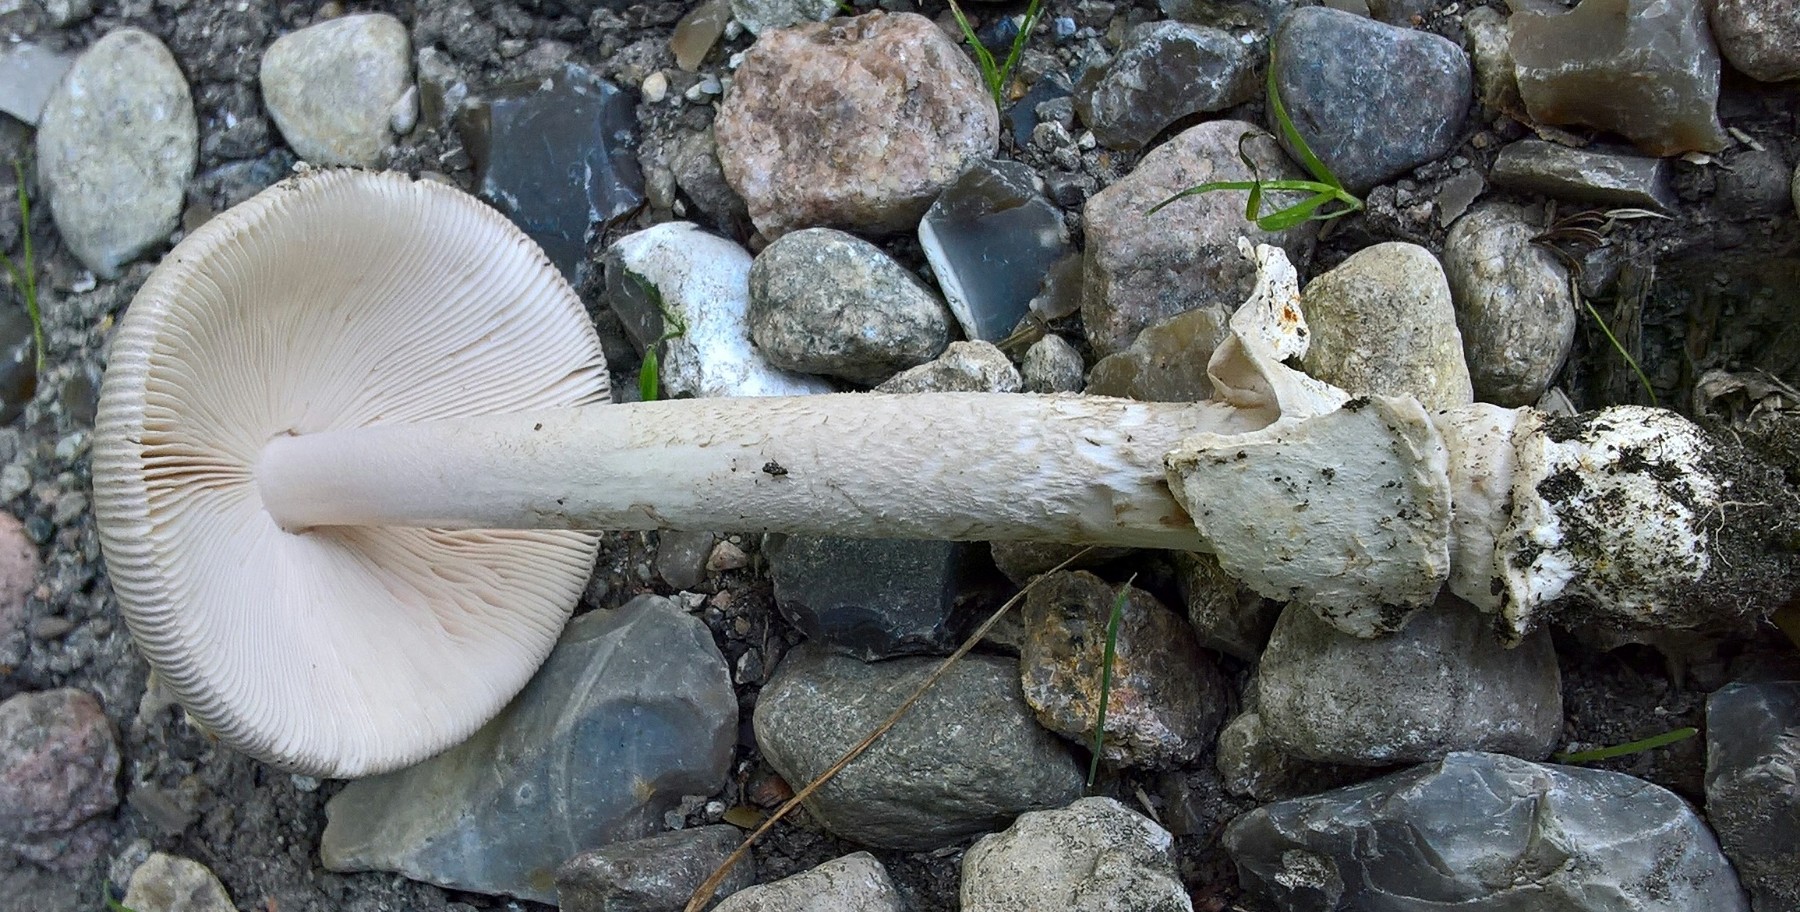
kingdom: Fungi
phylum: Basidiomycota
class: Agaricomycetes
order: Agaricales
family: Amanitaceae
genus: Amanita
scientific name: Amanita vaginata
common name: grå kam-fluesvamp
